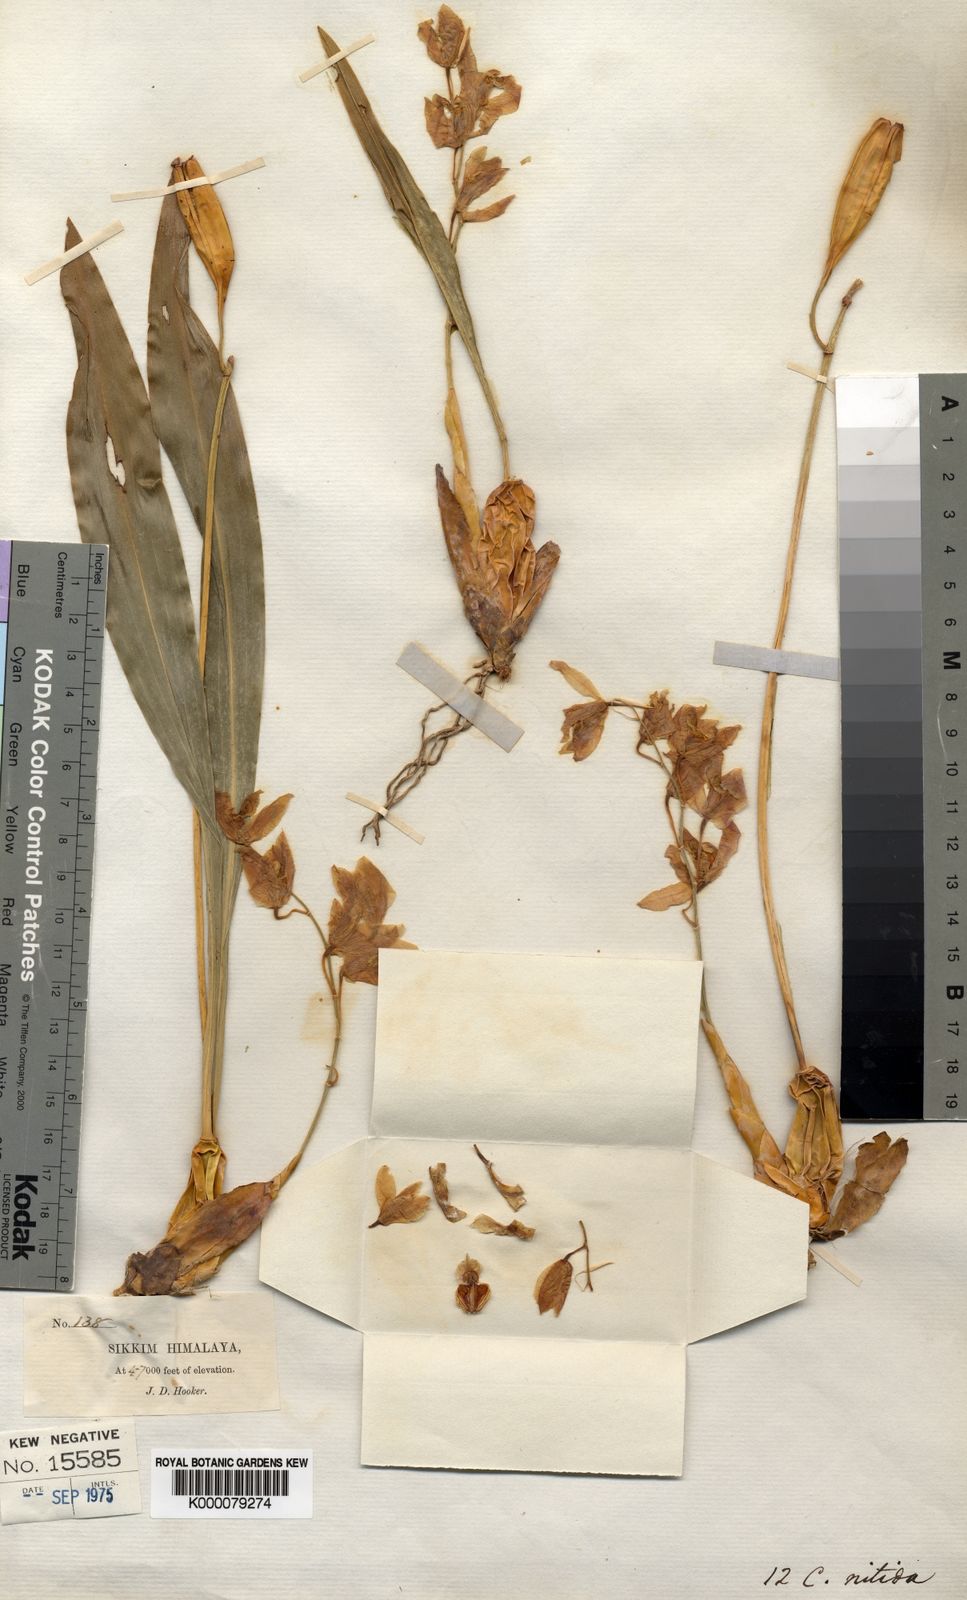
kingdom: Plantae
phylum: Tracheophyta
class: Liliopsida
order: Asparagales
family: Orchidaceae
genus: Coelogyne
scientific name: Coelogyne nitida
